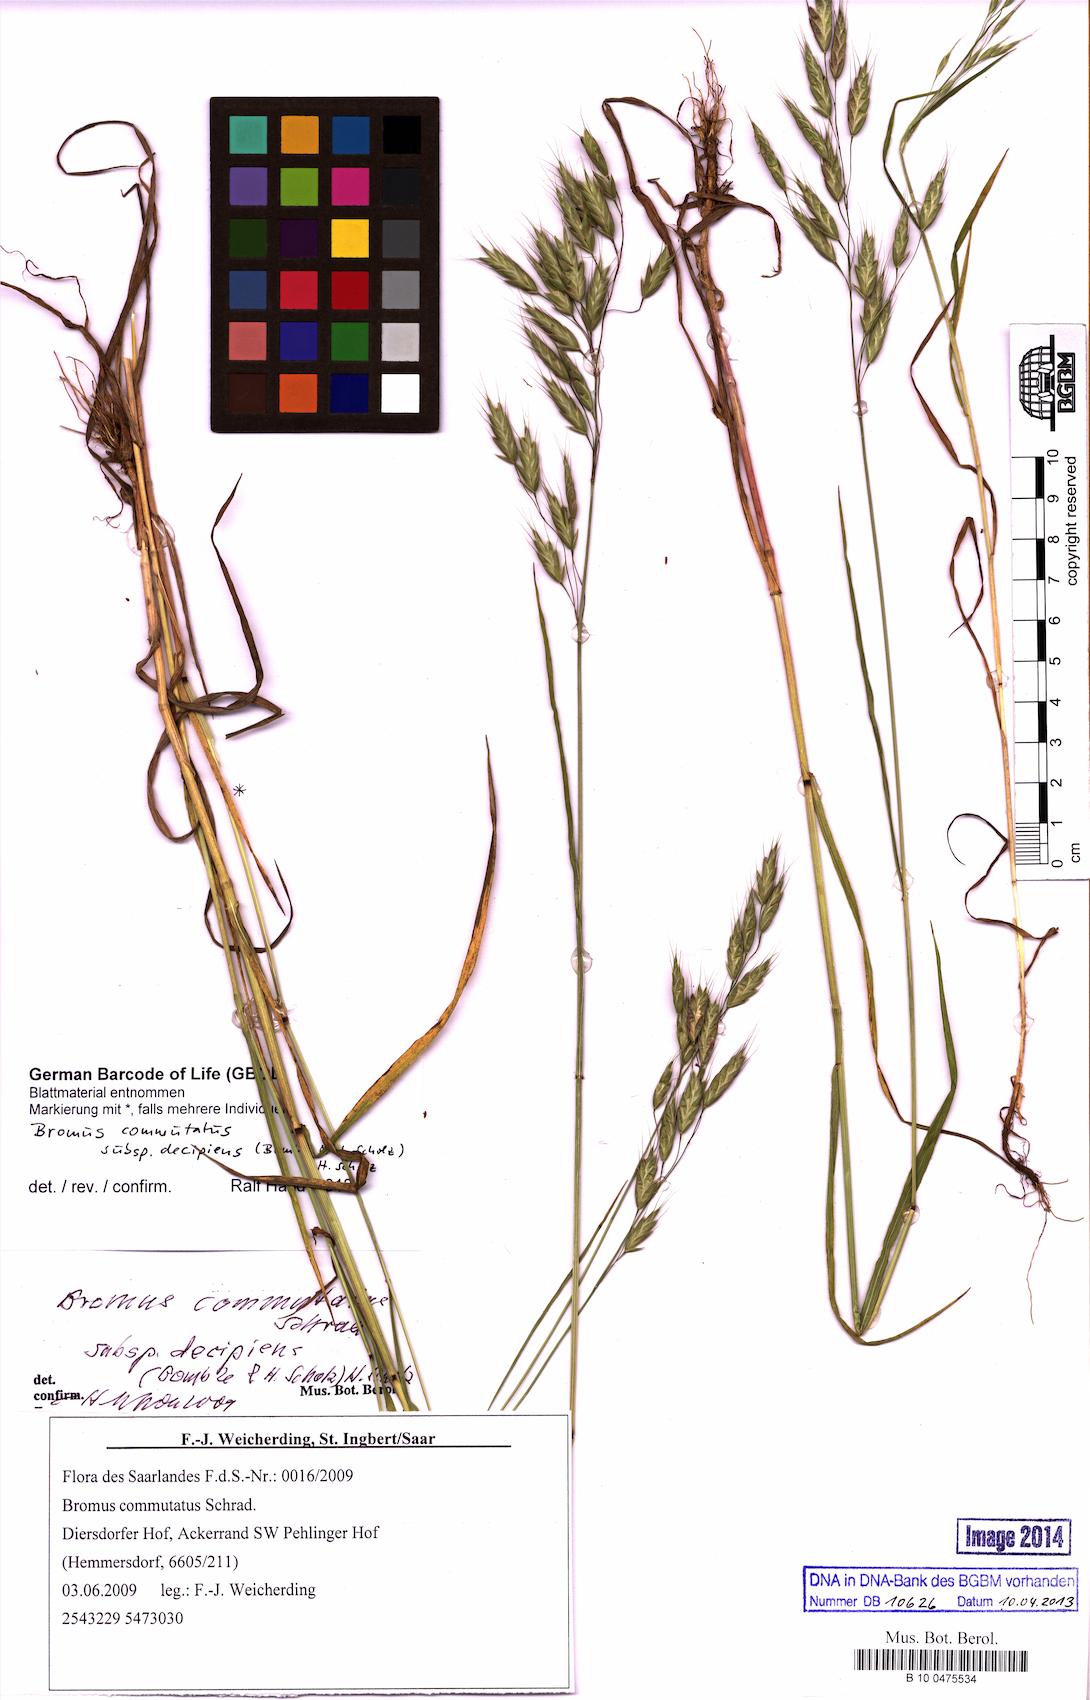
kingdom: Plantae
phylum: Tracheophyta
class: Liliopsida
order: Poales
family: Poaceae
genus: Bromus
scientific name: Bromus commutatus
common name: Meadow brome
